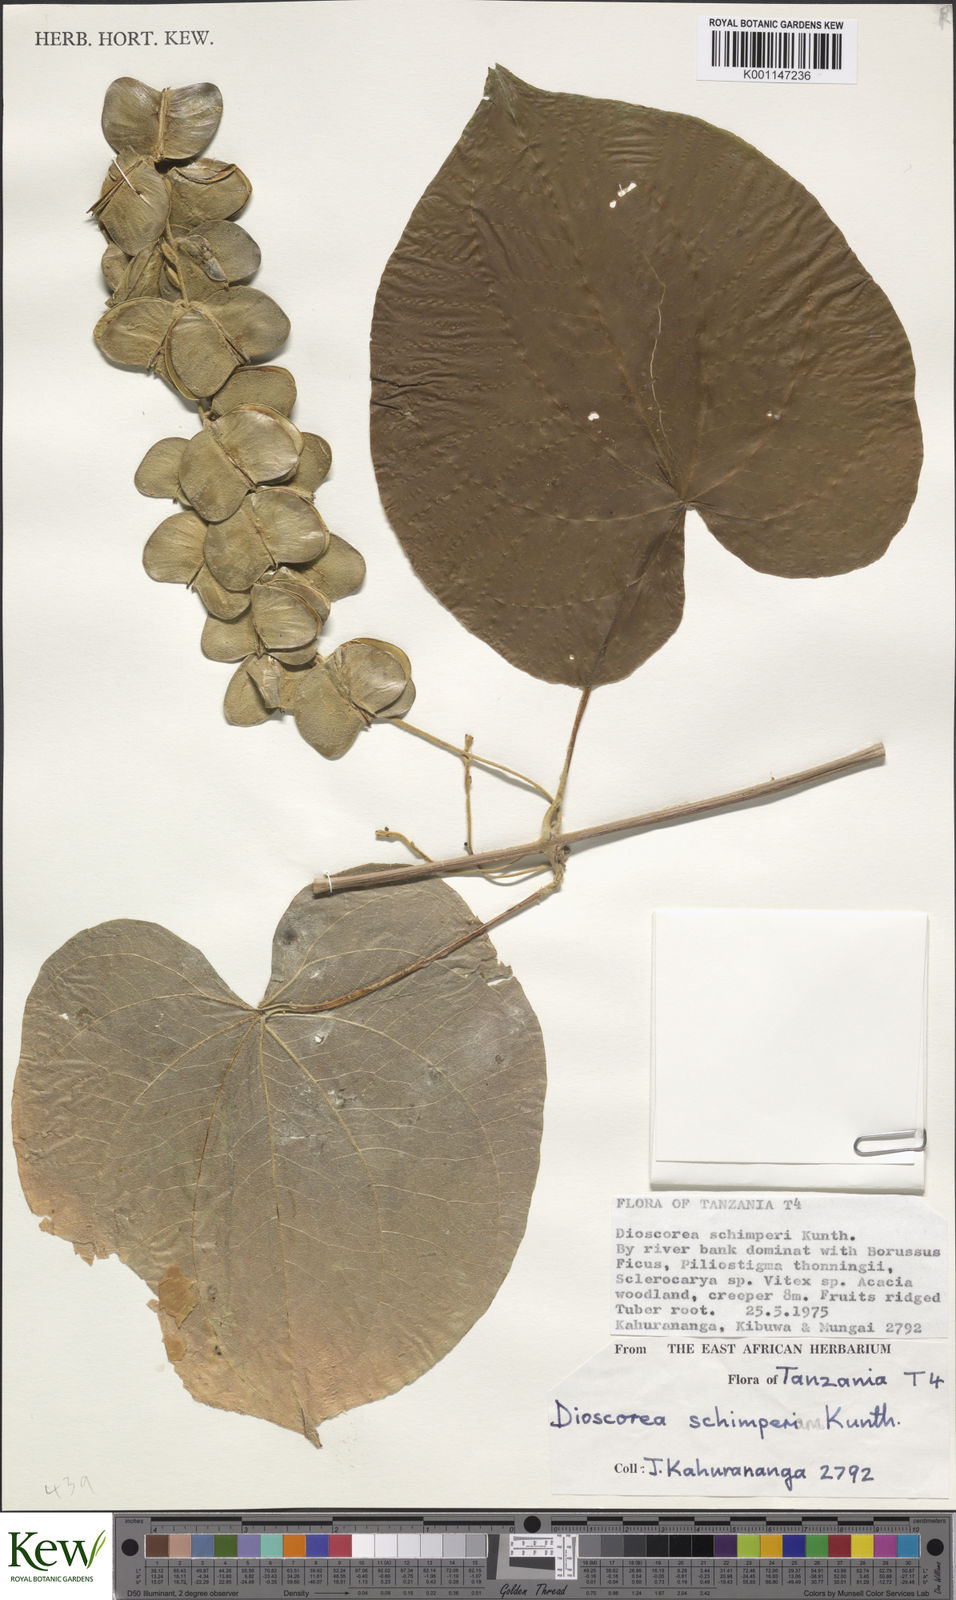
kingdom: Plantae
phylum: Tracheophyta
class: Liliopsida
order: Dioscoreales
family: Dioscoreaceae
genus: Dioscorea
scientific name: Dioscorea schimperiana
